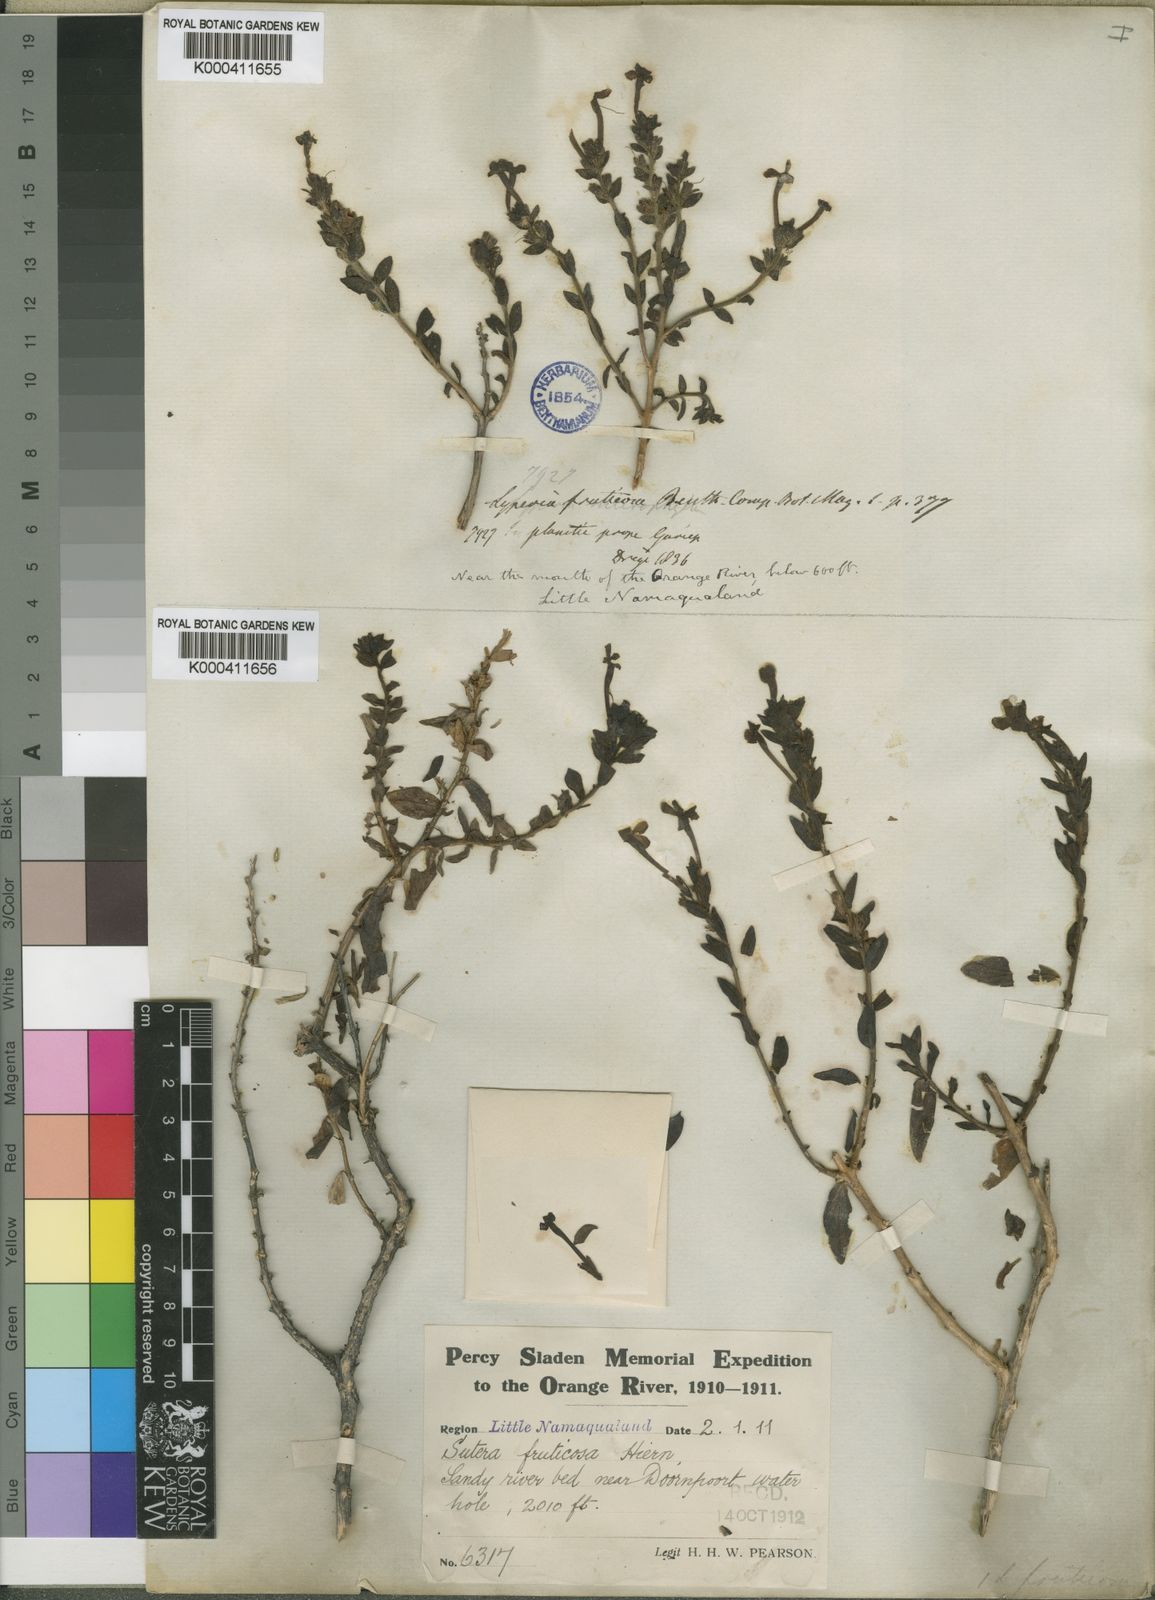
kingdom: Plantae
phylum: Tracheophyta
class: Magnoliopsida
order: Lamiales
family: Scrophulariaceae
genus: Jamesbrittenia
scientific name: Jamesbrittenia fruticosa
